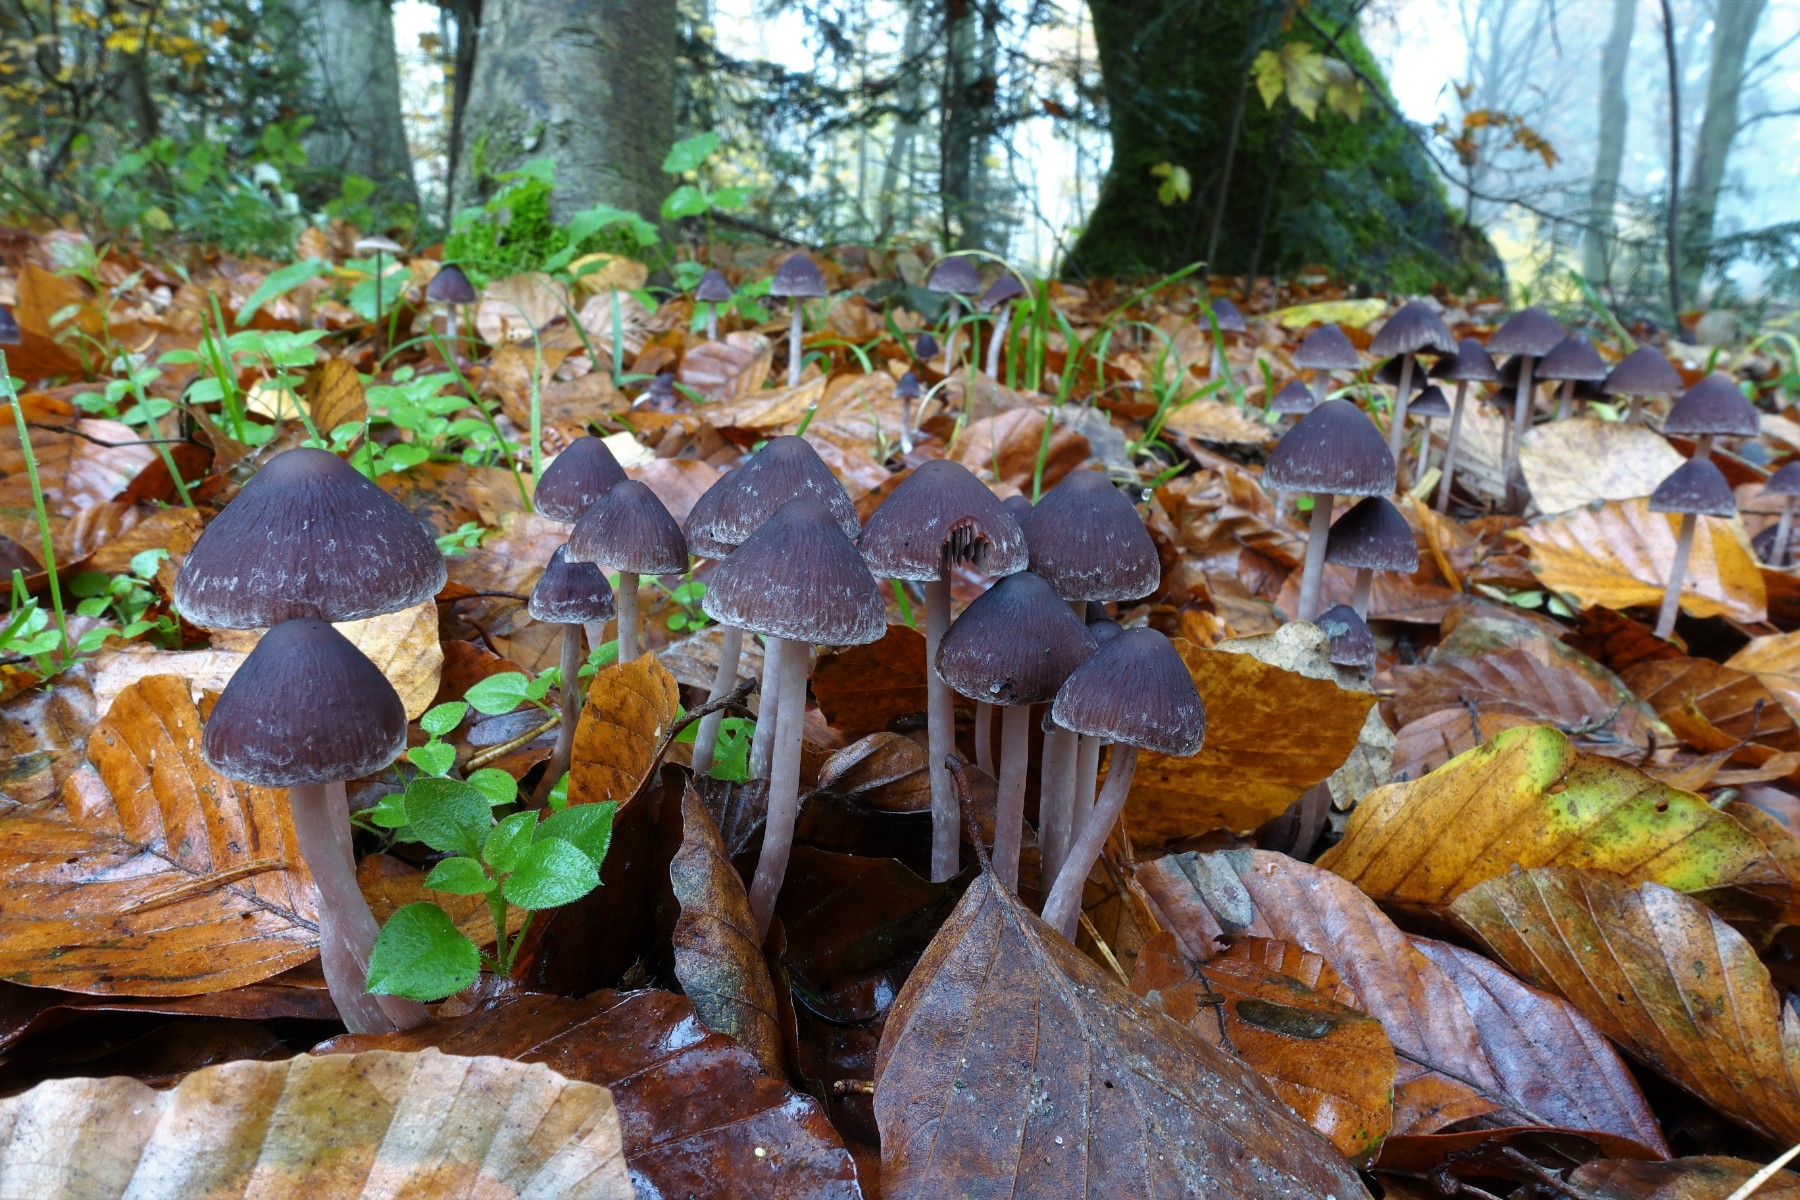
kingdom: Fungi
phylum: Basidiomycota
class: Agaricomycetes
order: Agaricales
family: Psathyrellaceae
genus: Psathyrella
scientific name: Psathyrella bipellis
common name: vinrød mørkhat
